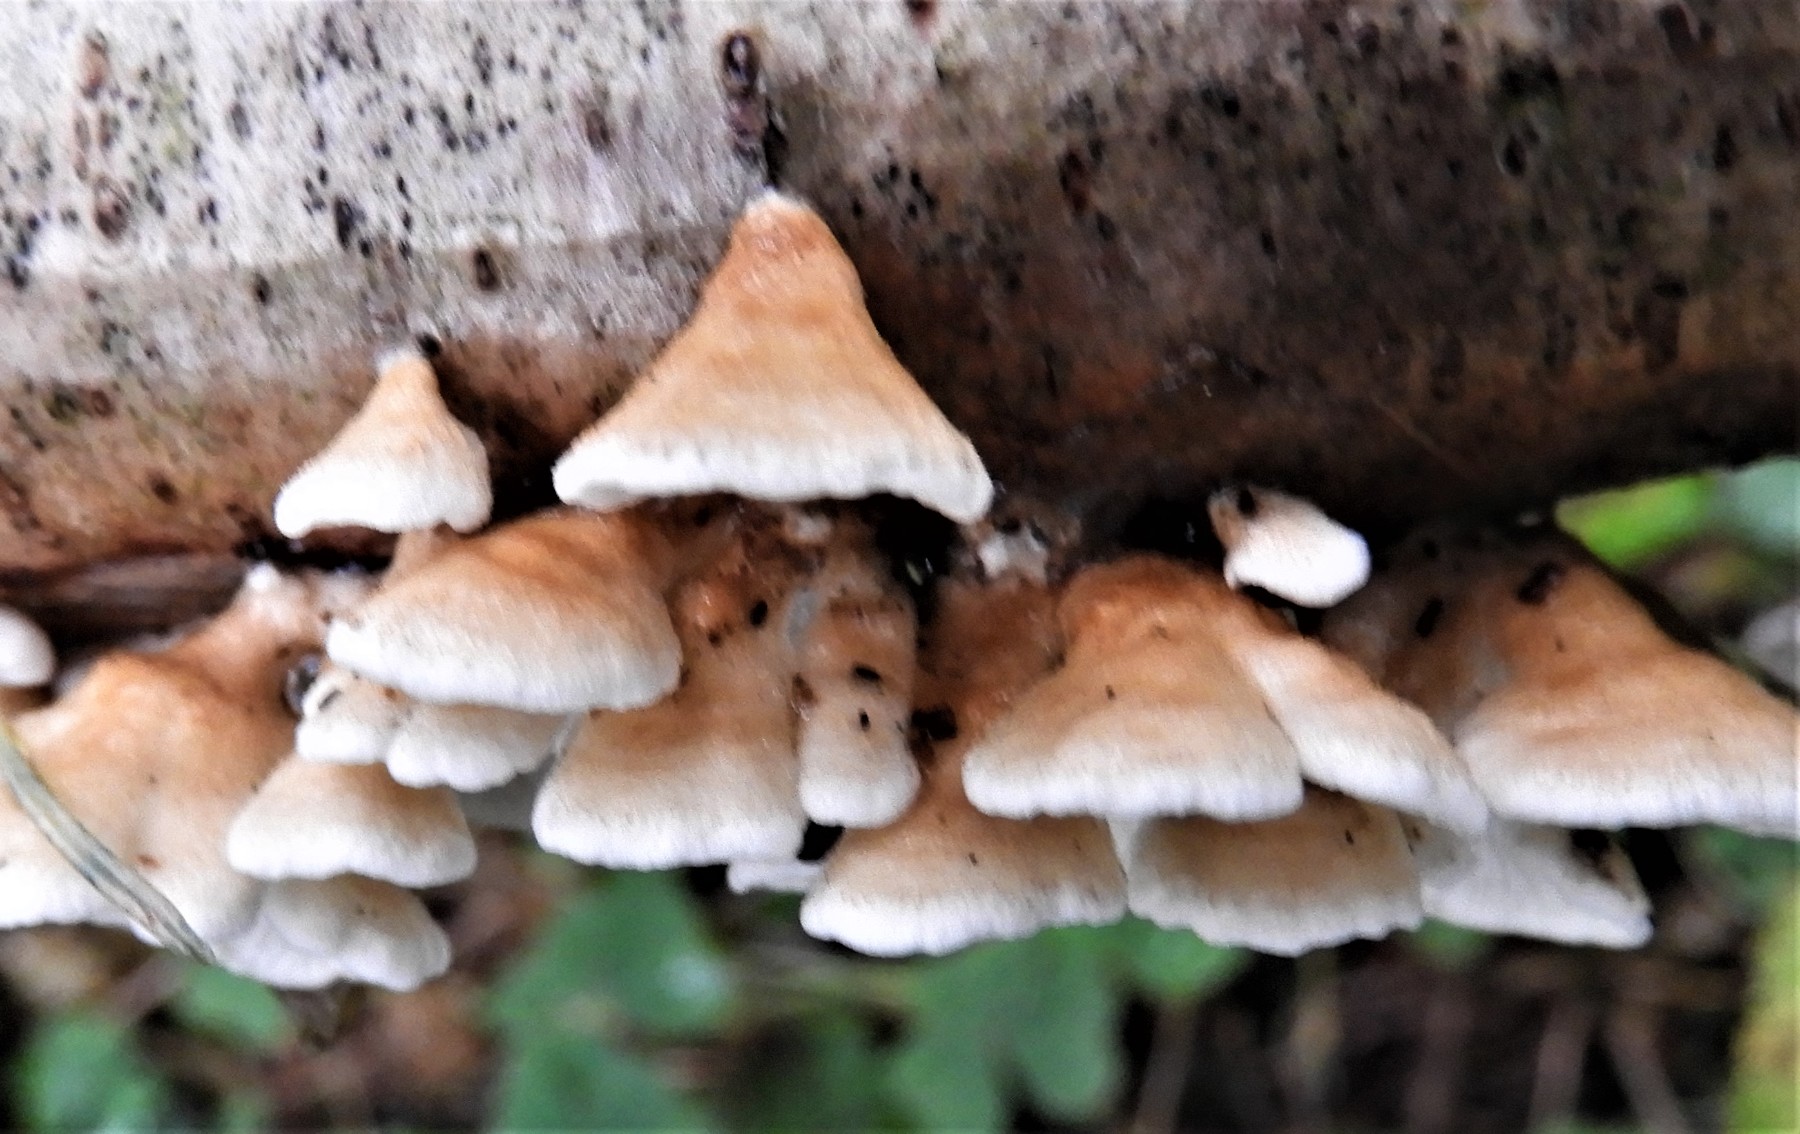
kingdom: Fungi
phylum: Basidiomycota
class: Agaricomycetes
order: Amylocorticiales
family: Amylocorticiaceae
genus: Plicaturopsis
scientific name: Plicaturopsis crispa
